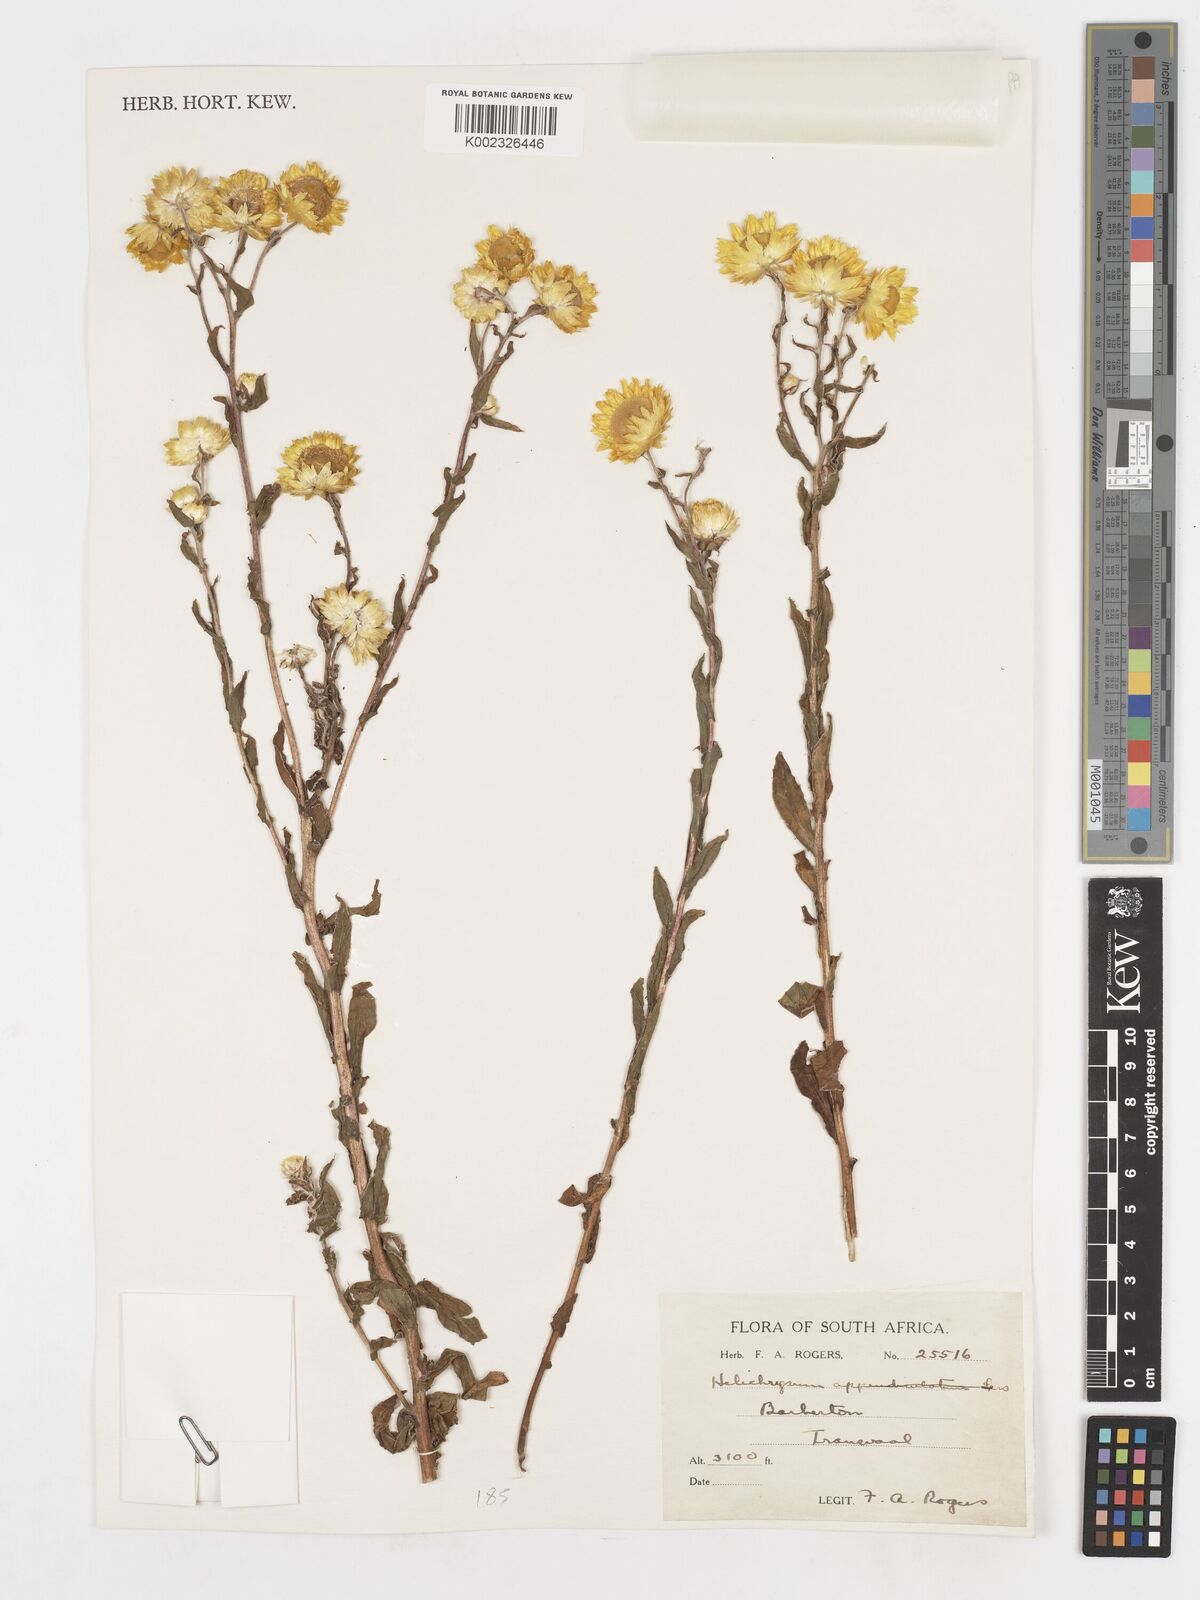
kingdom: Plantae
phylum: Tracheophyta
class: Magnoliopsida
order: Asterales
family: Asteraceae
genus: Helichrysum
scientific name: Helichrysum aureolum
